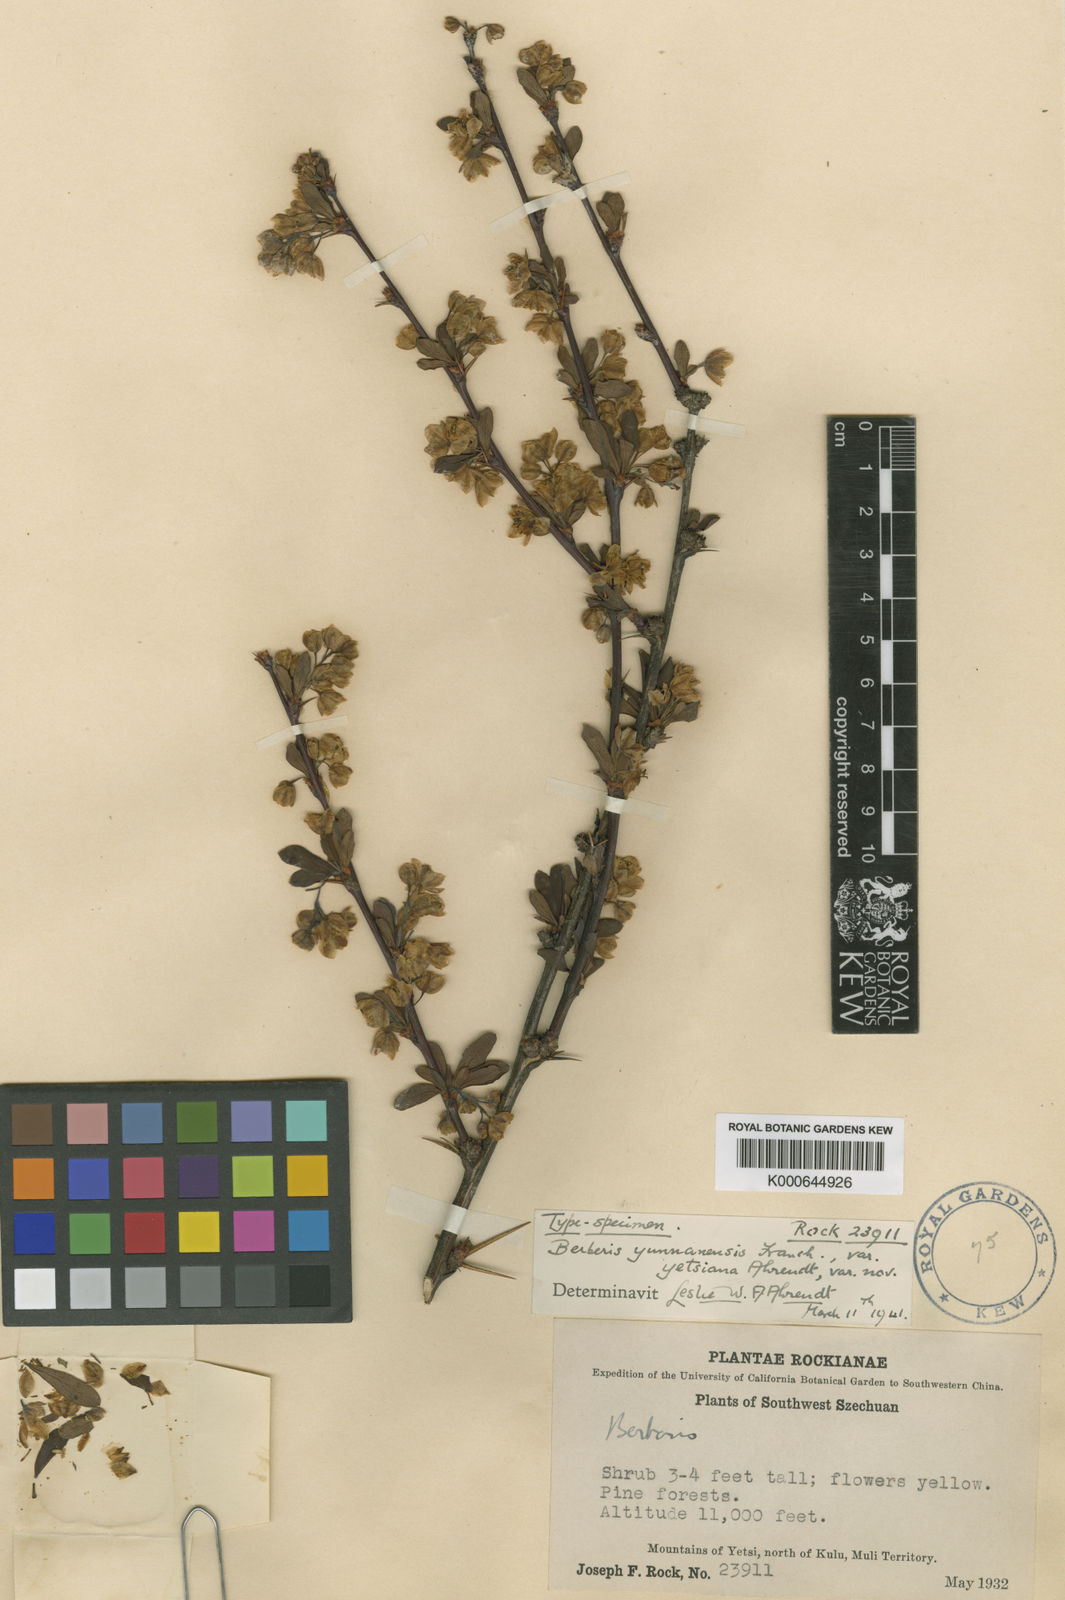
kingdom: Plantae
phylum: Tracheophyta
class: Magnoliopsida
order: Ranunculales
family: Berberidaceae
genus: Berberis
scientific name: Berberis yunnanensis
